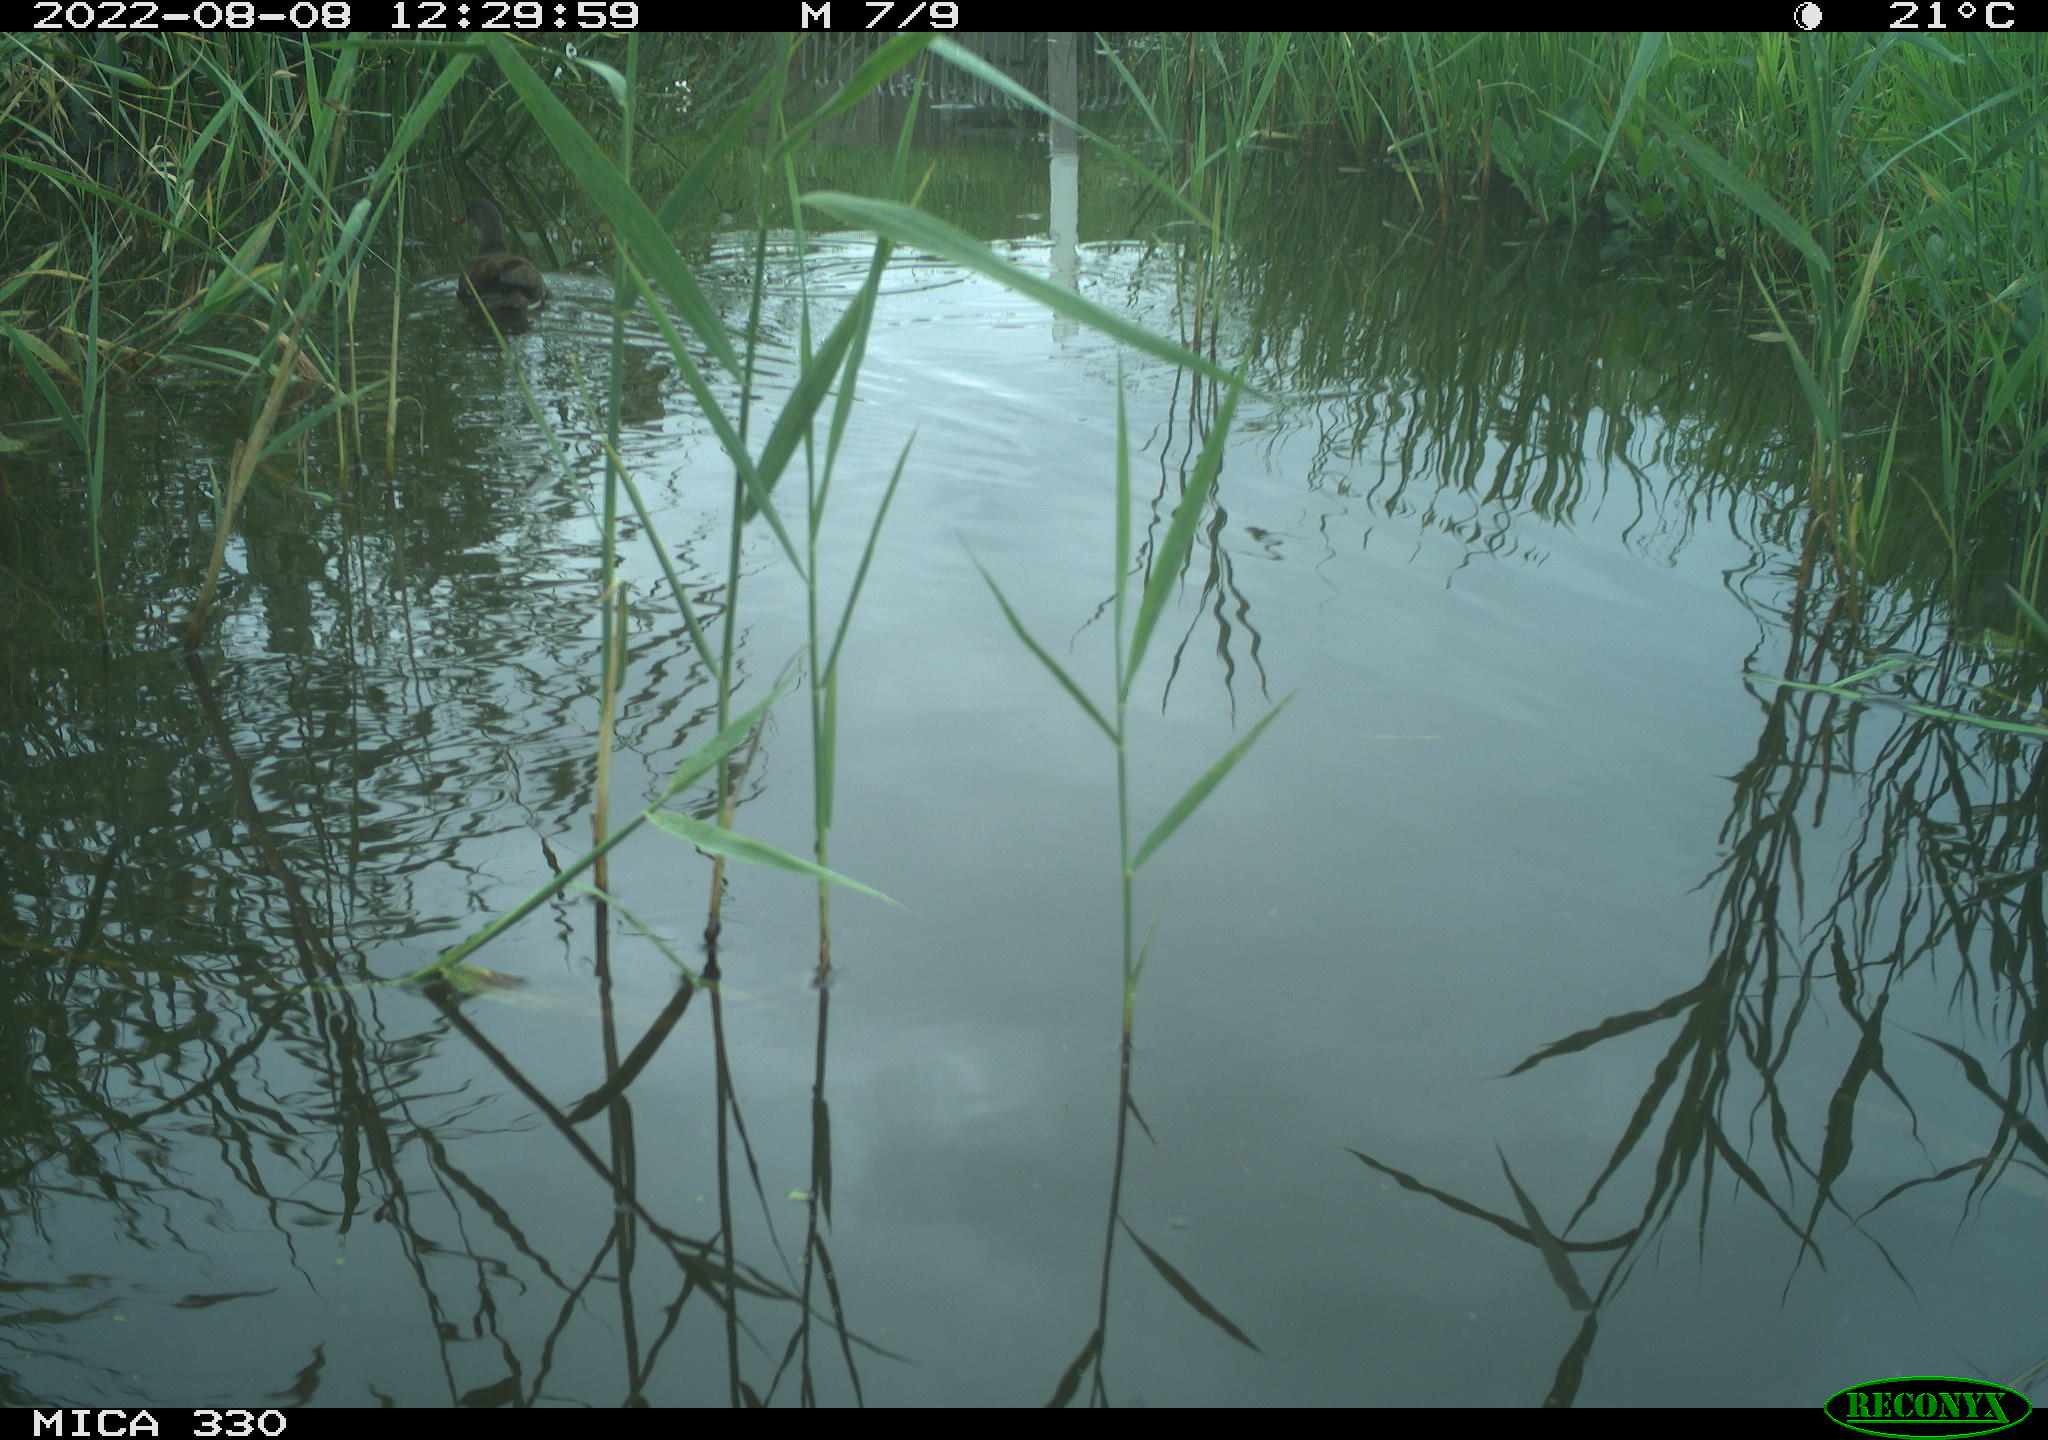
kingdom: Animalia
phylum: Chordata
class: Aves
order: Gruiformes
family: Rallidae
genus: Gallinula
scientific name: Gallinula chloropus
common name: Common moorhen
